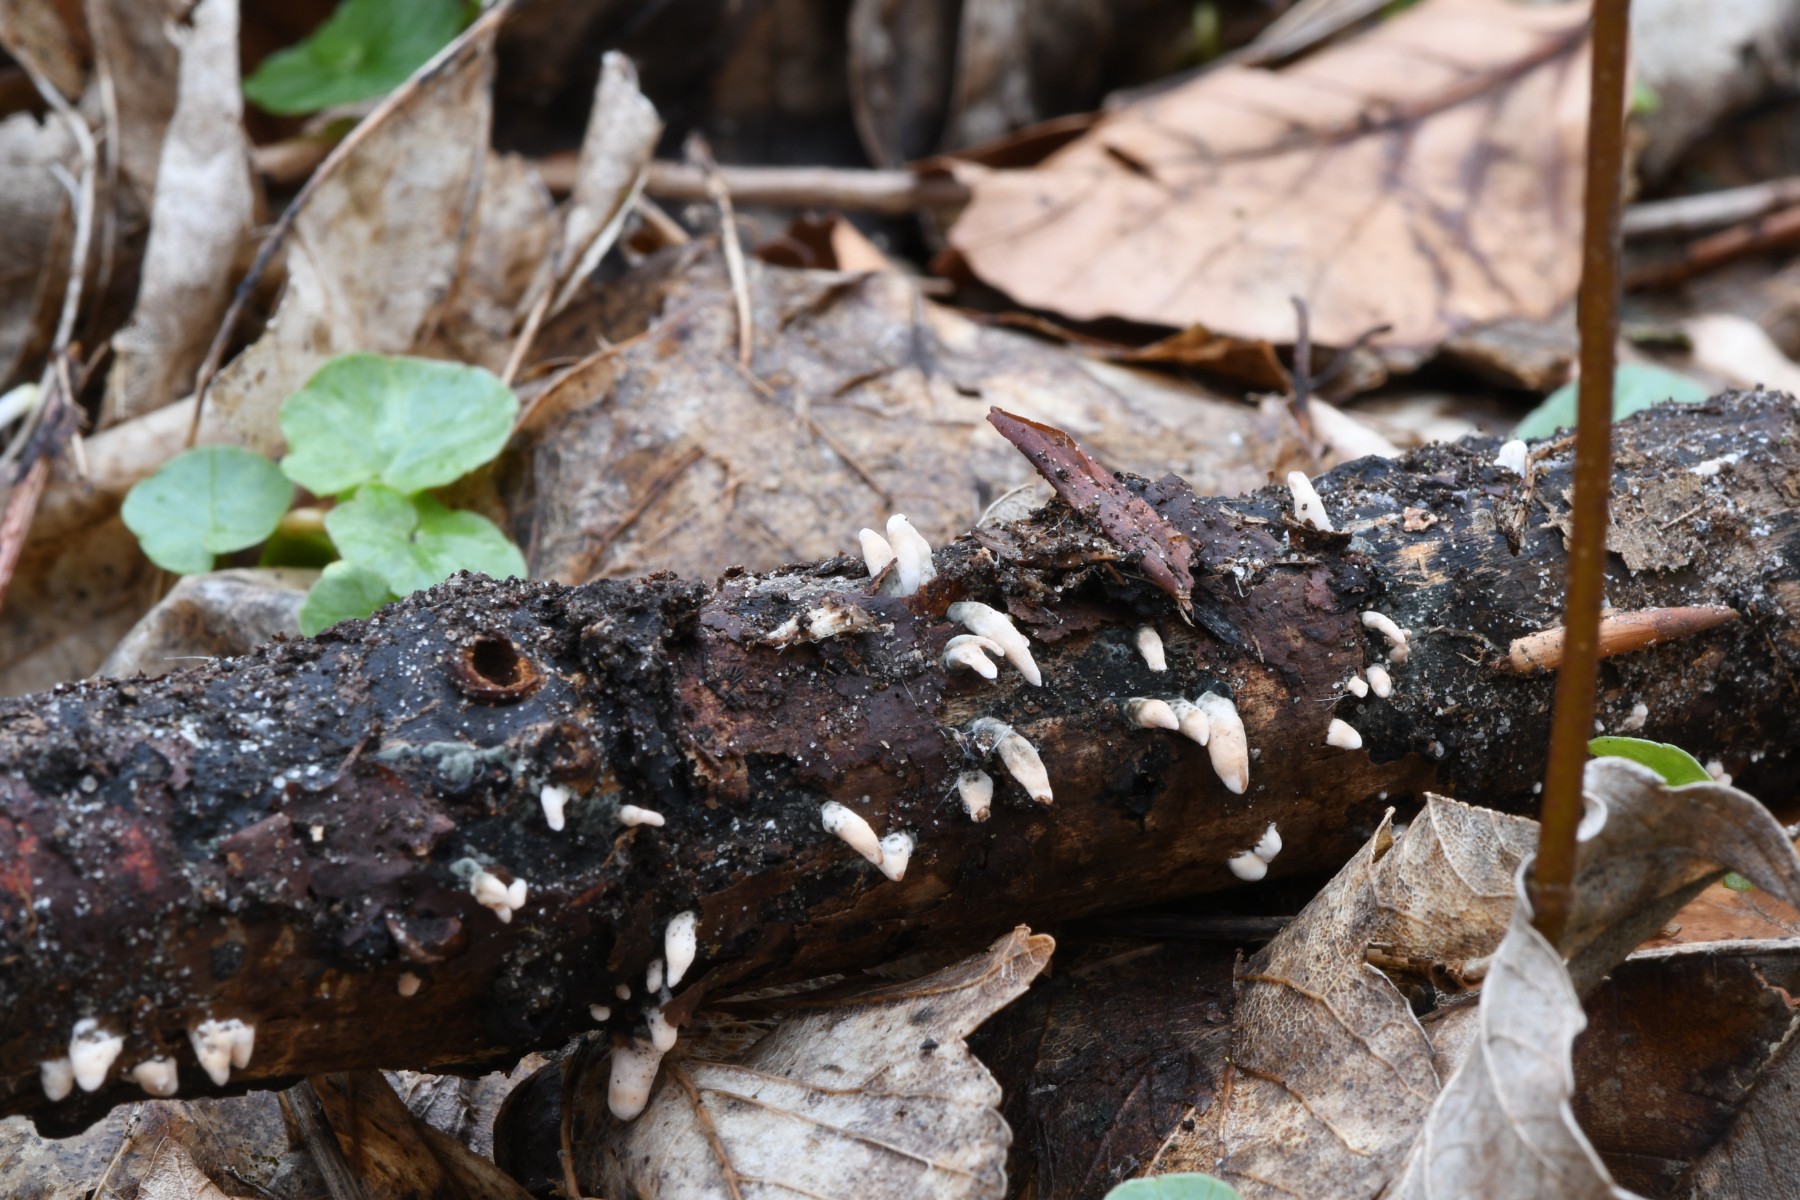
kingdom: Fungi
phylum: Ascomycota
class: Sordariomycetes
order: Xylariales
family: Xylariaceae
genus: Xylaria
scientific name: Xylaria hypoxylon
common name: grenet stødsvamp
